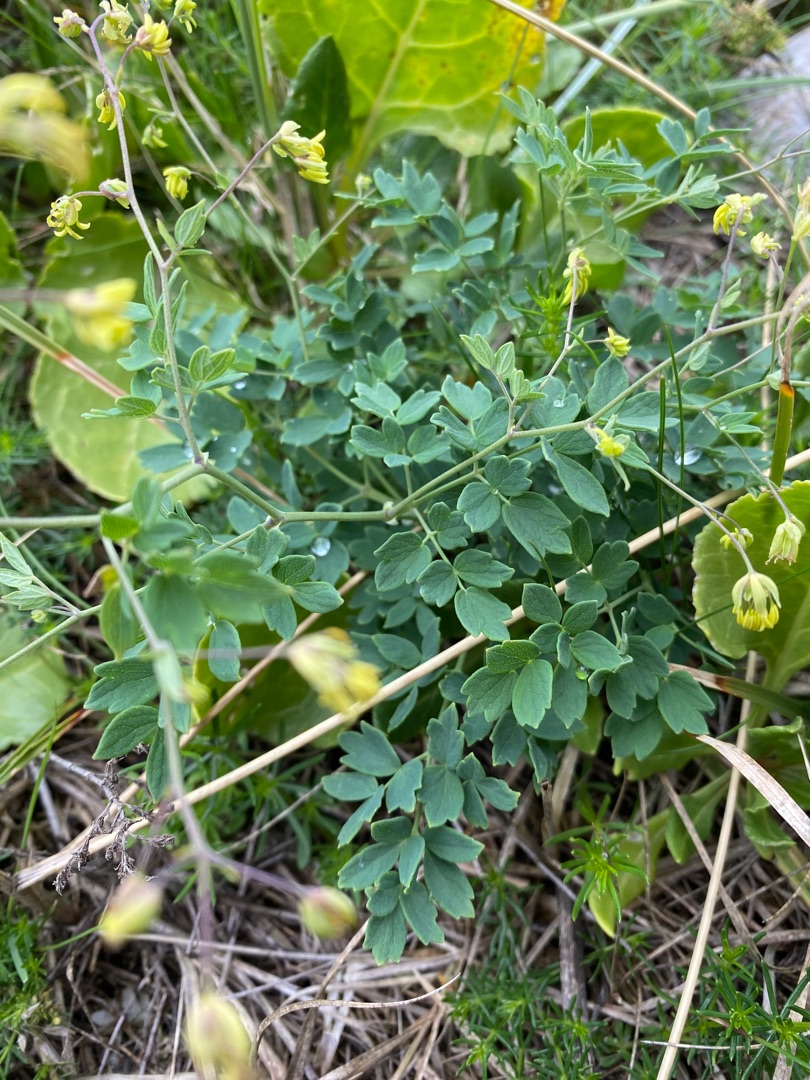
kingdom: Plantae
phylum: Tracheophyta
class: Magnoliopsida
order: Ranunculales
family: Ranunculaceae
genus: Thalictrum
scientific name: Thalictrum minus
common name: Sand-frøstjerne
